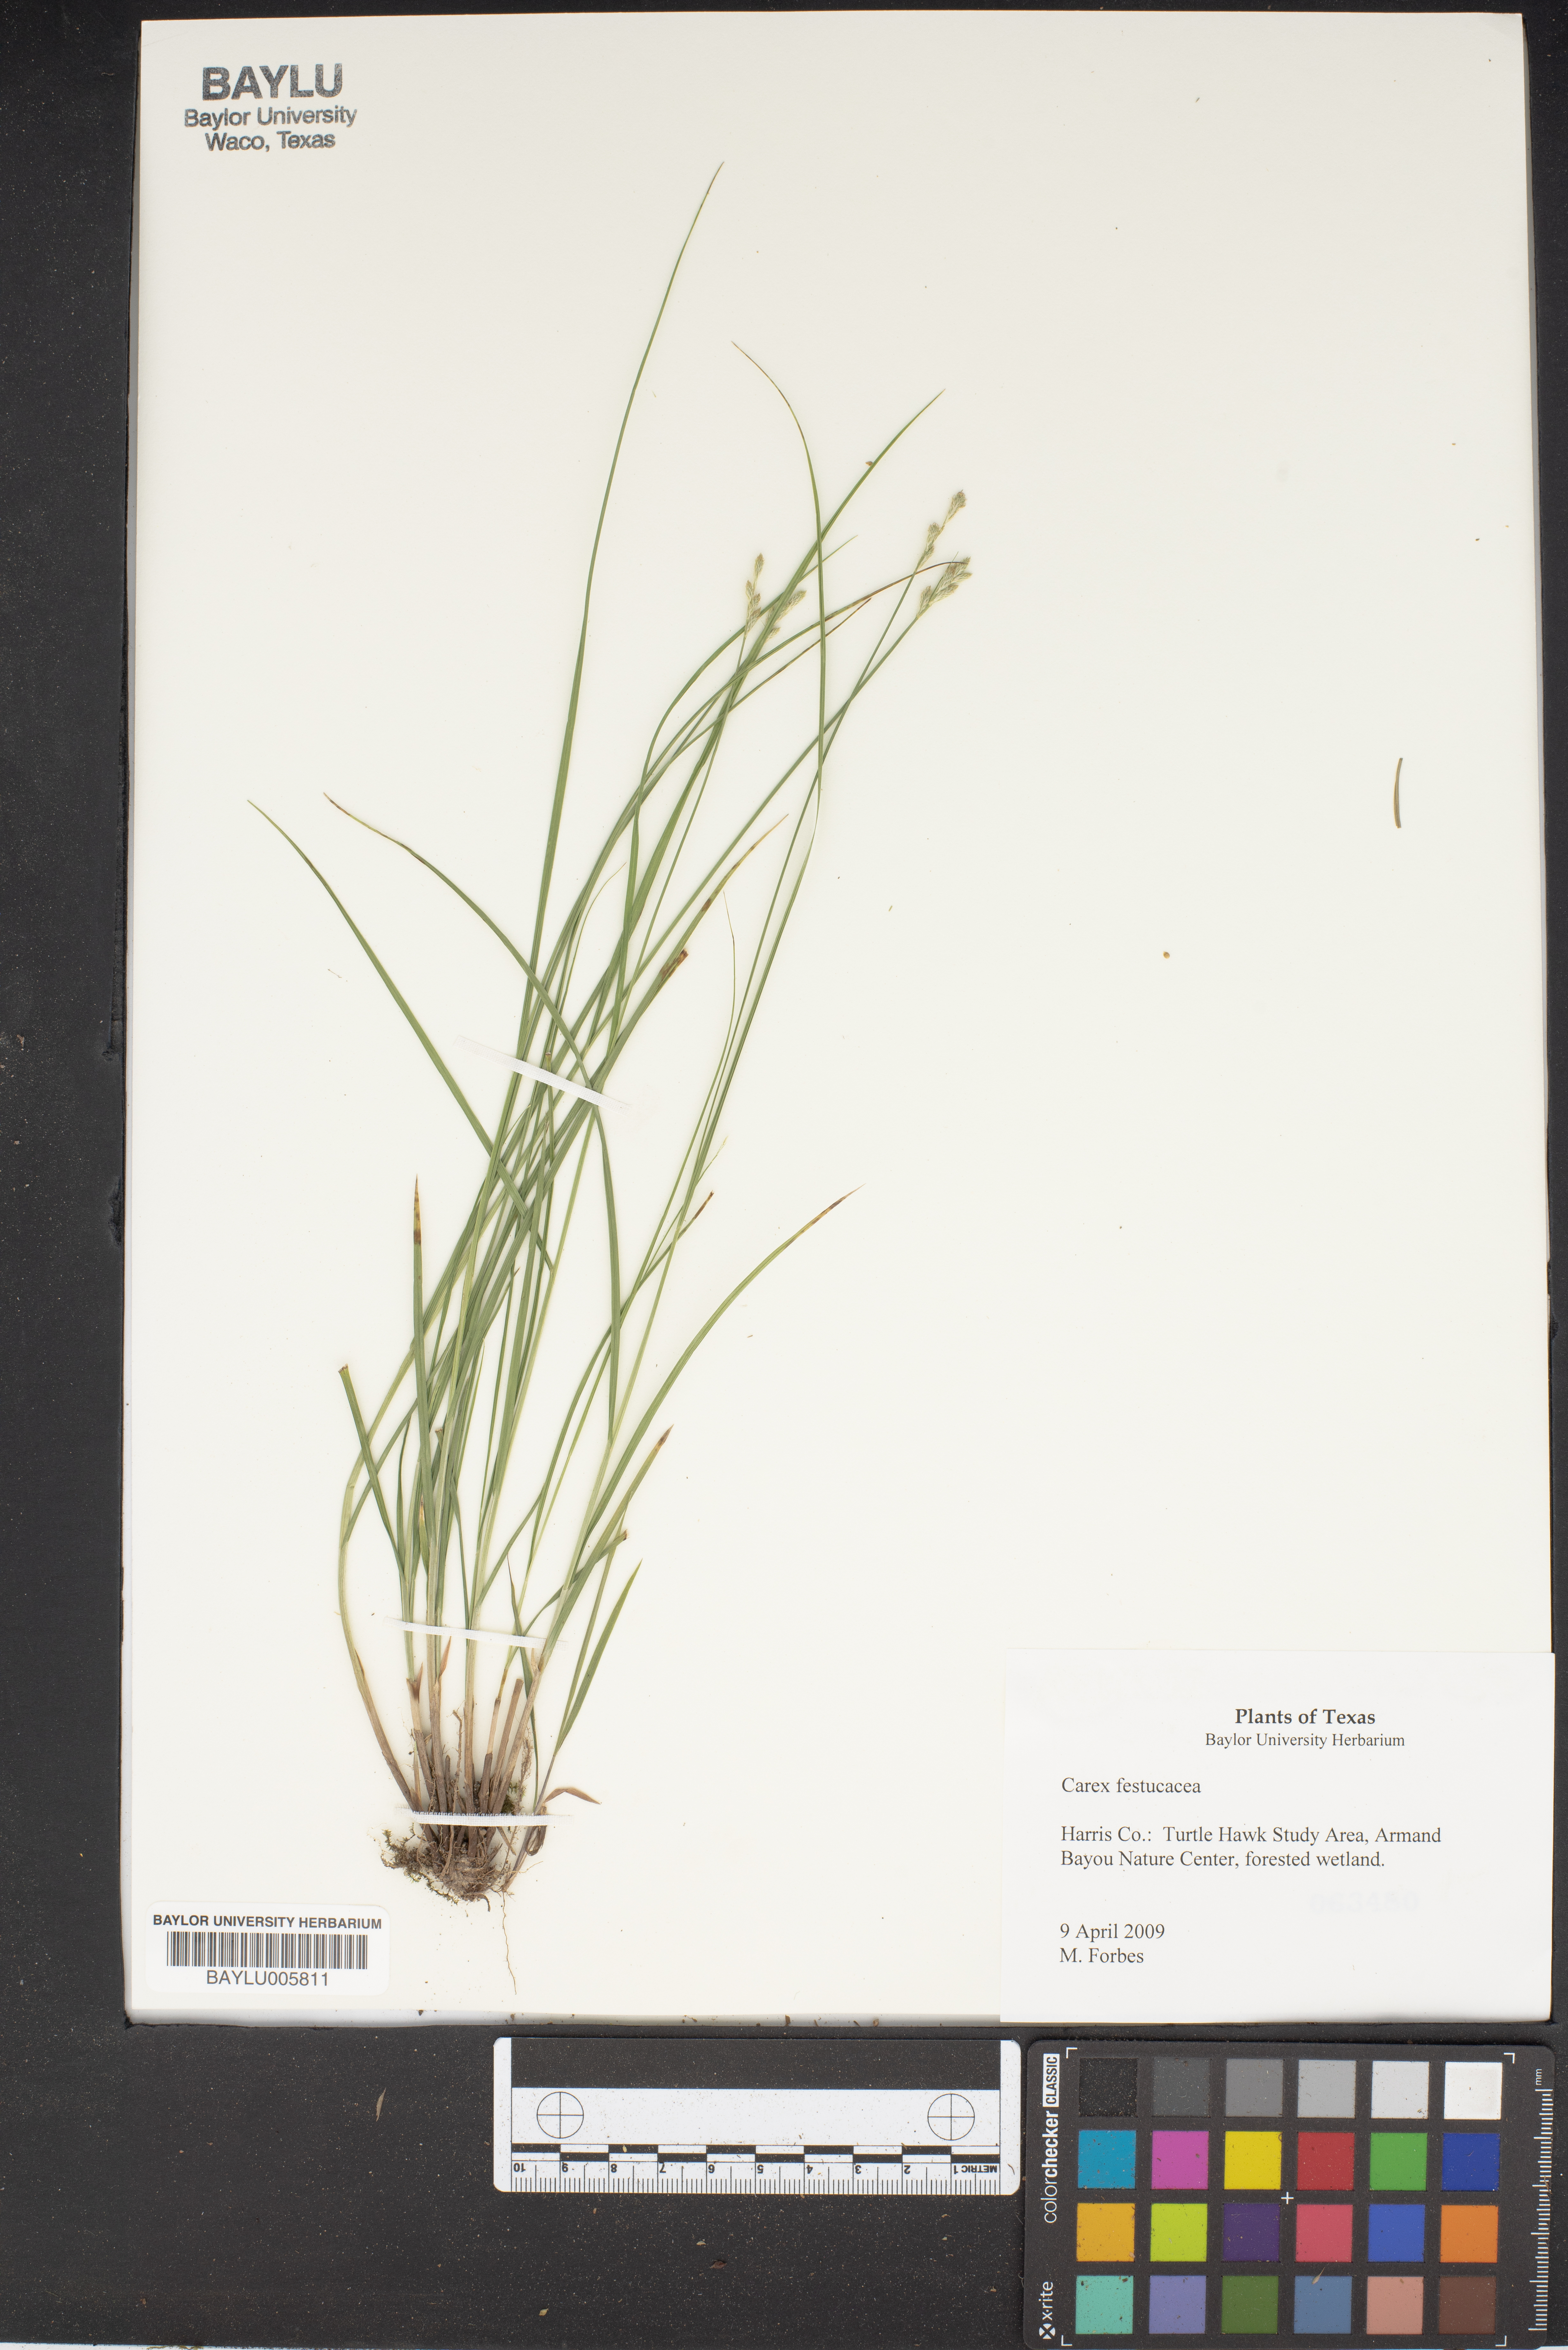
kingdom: Plantae
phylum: Tracheophyta
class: Liliopsida
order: Poales
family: Cyperaceae
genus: Carex
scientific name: Carex festucacea
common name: Fescue oval sedge
